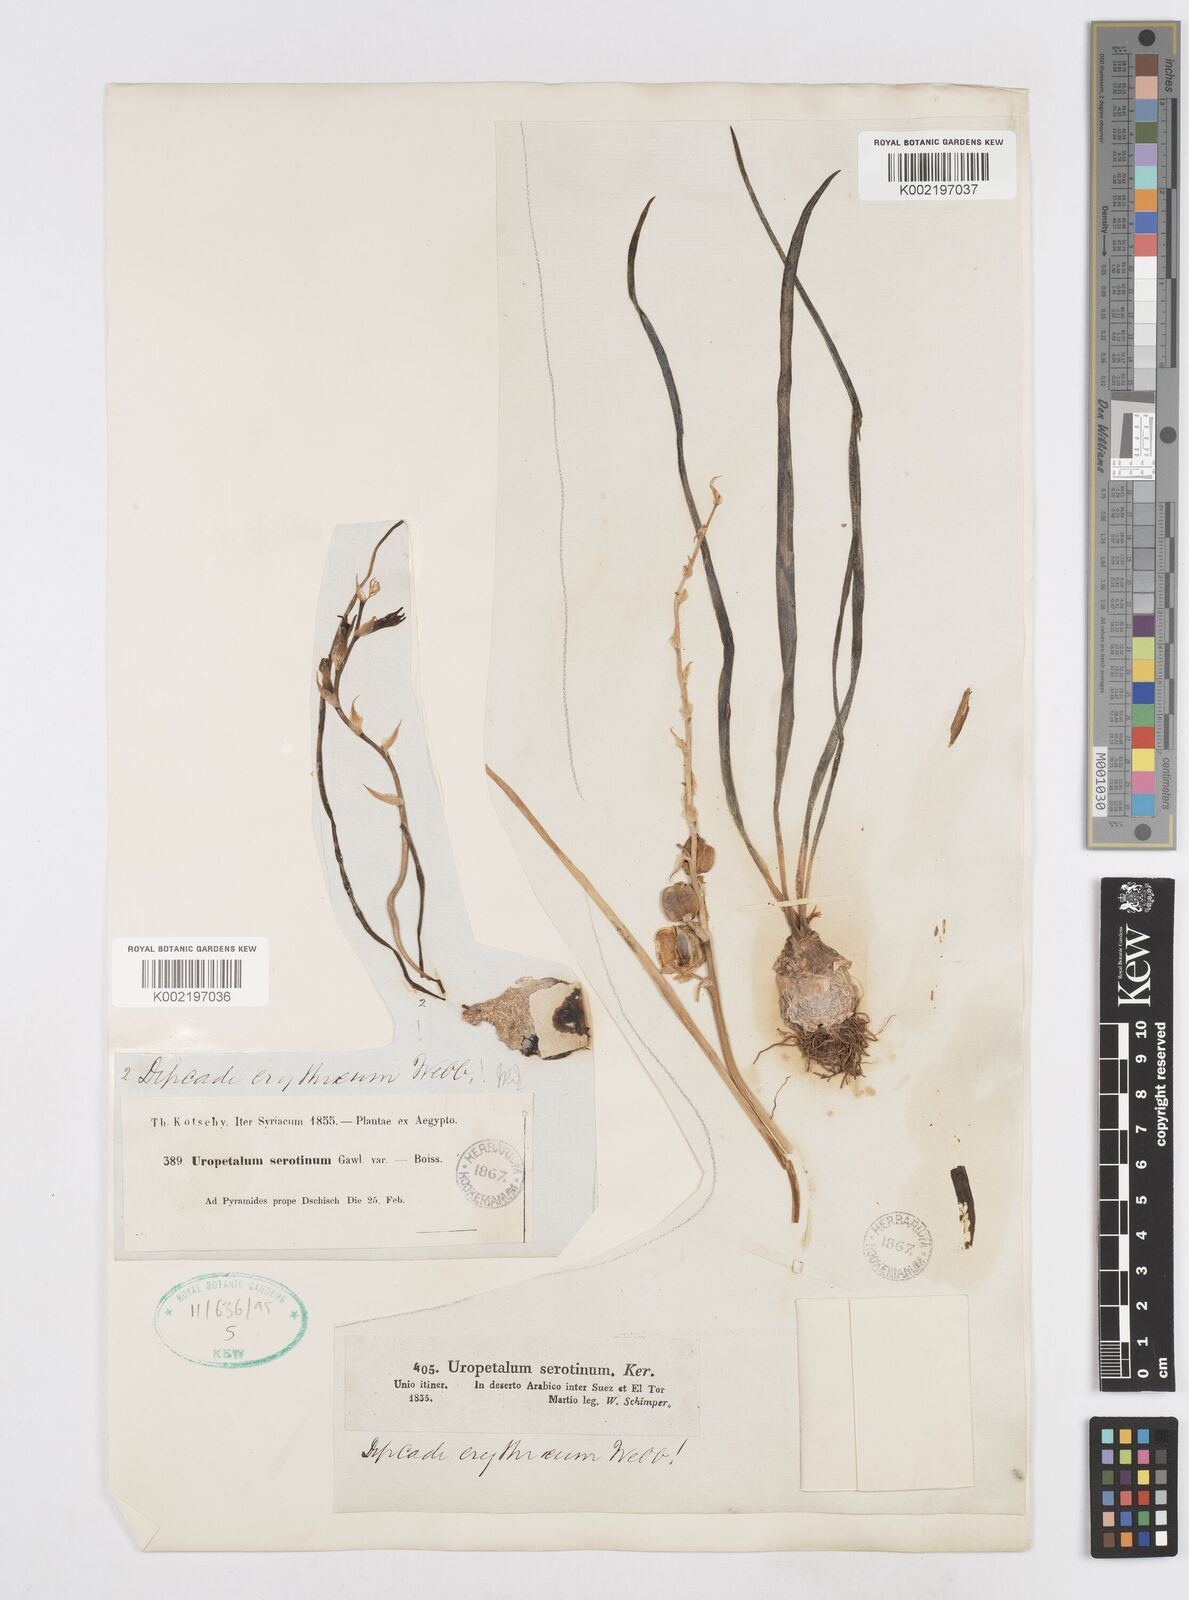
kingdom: Plantae
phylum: Tracheophyta
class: Liliopsida
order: Asparagales
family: Asparagaceae
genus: Dipcadi
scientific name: Dipcadi serotinum
